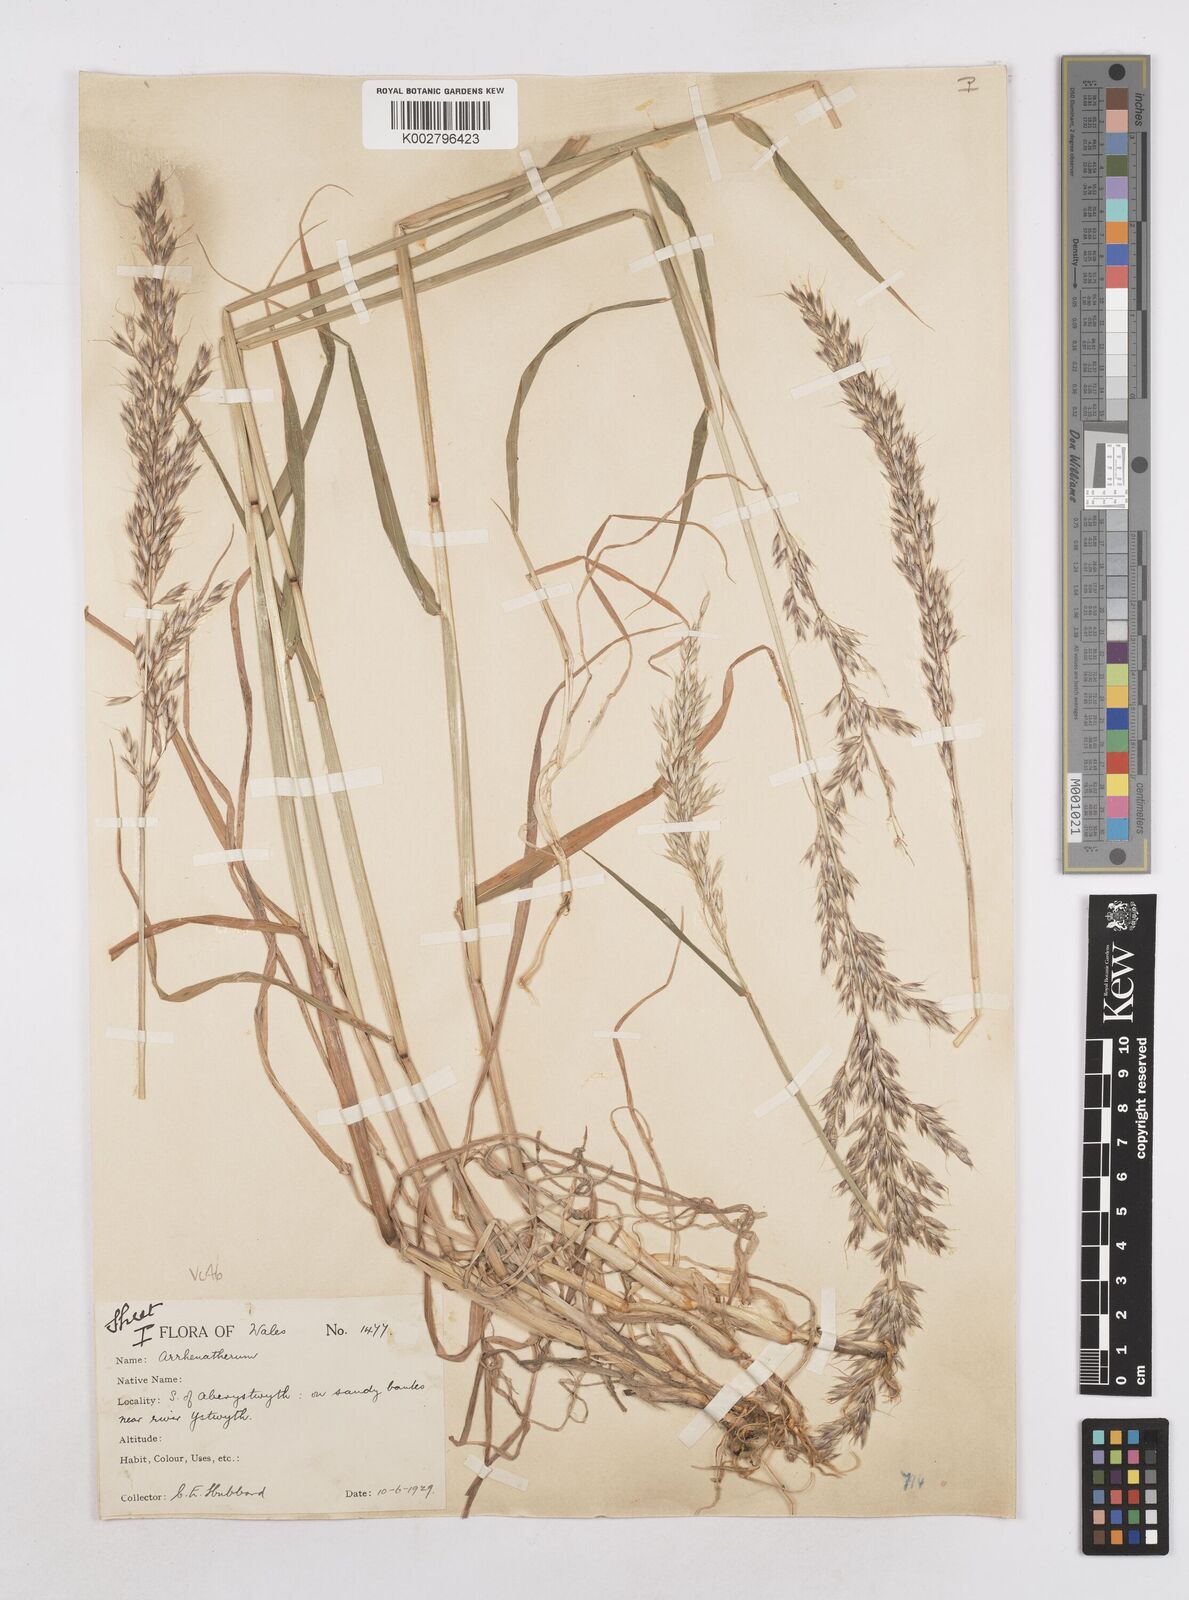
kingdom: Plantae
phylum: Tracheophyta
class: Liliopsida
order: Poales
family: Poaceae
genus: Arrhenatherum
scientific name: Arrhenatherum elatius
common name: Tall oatgrass
